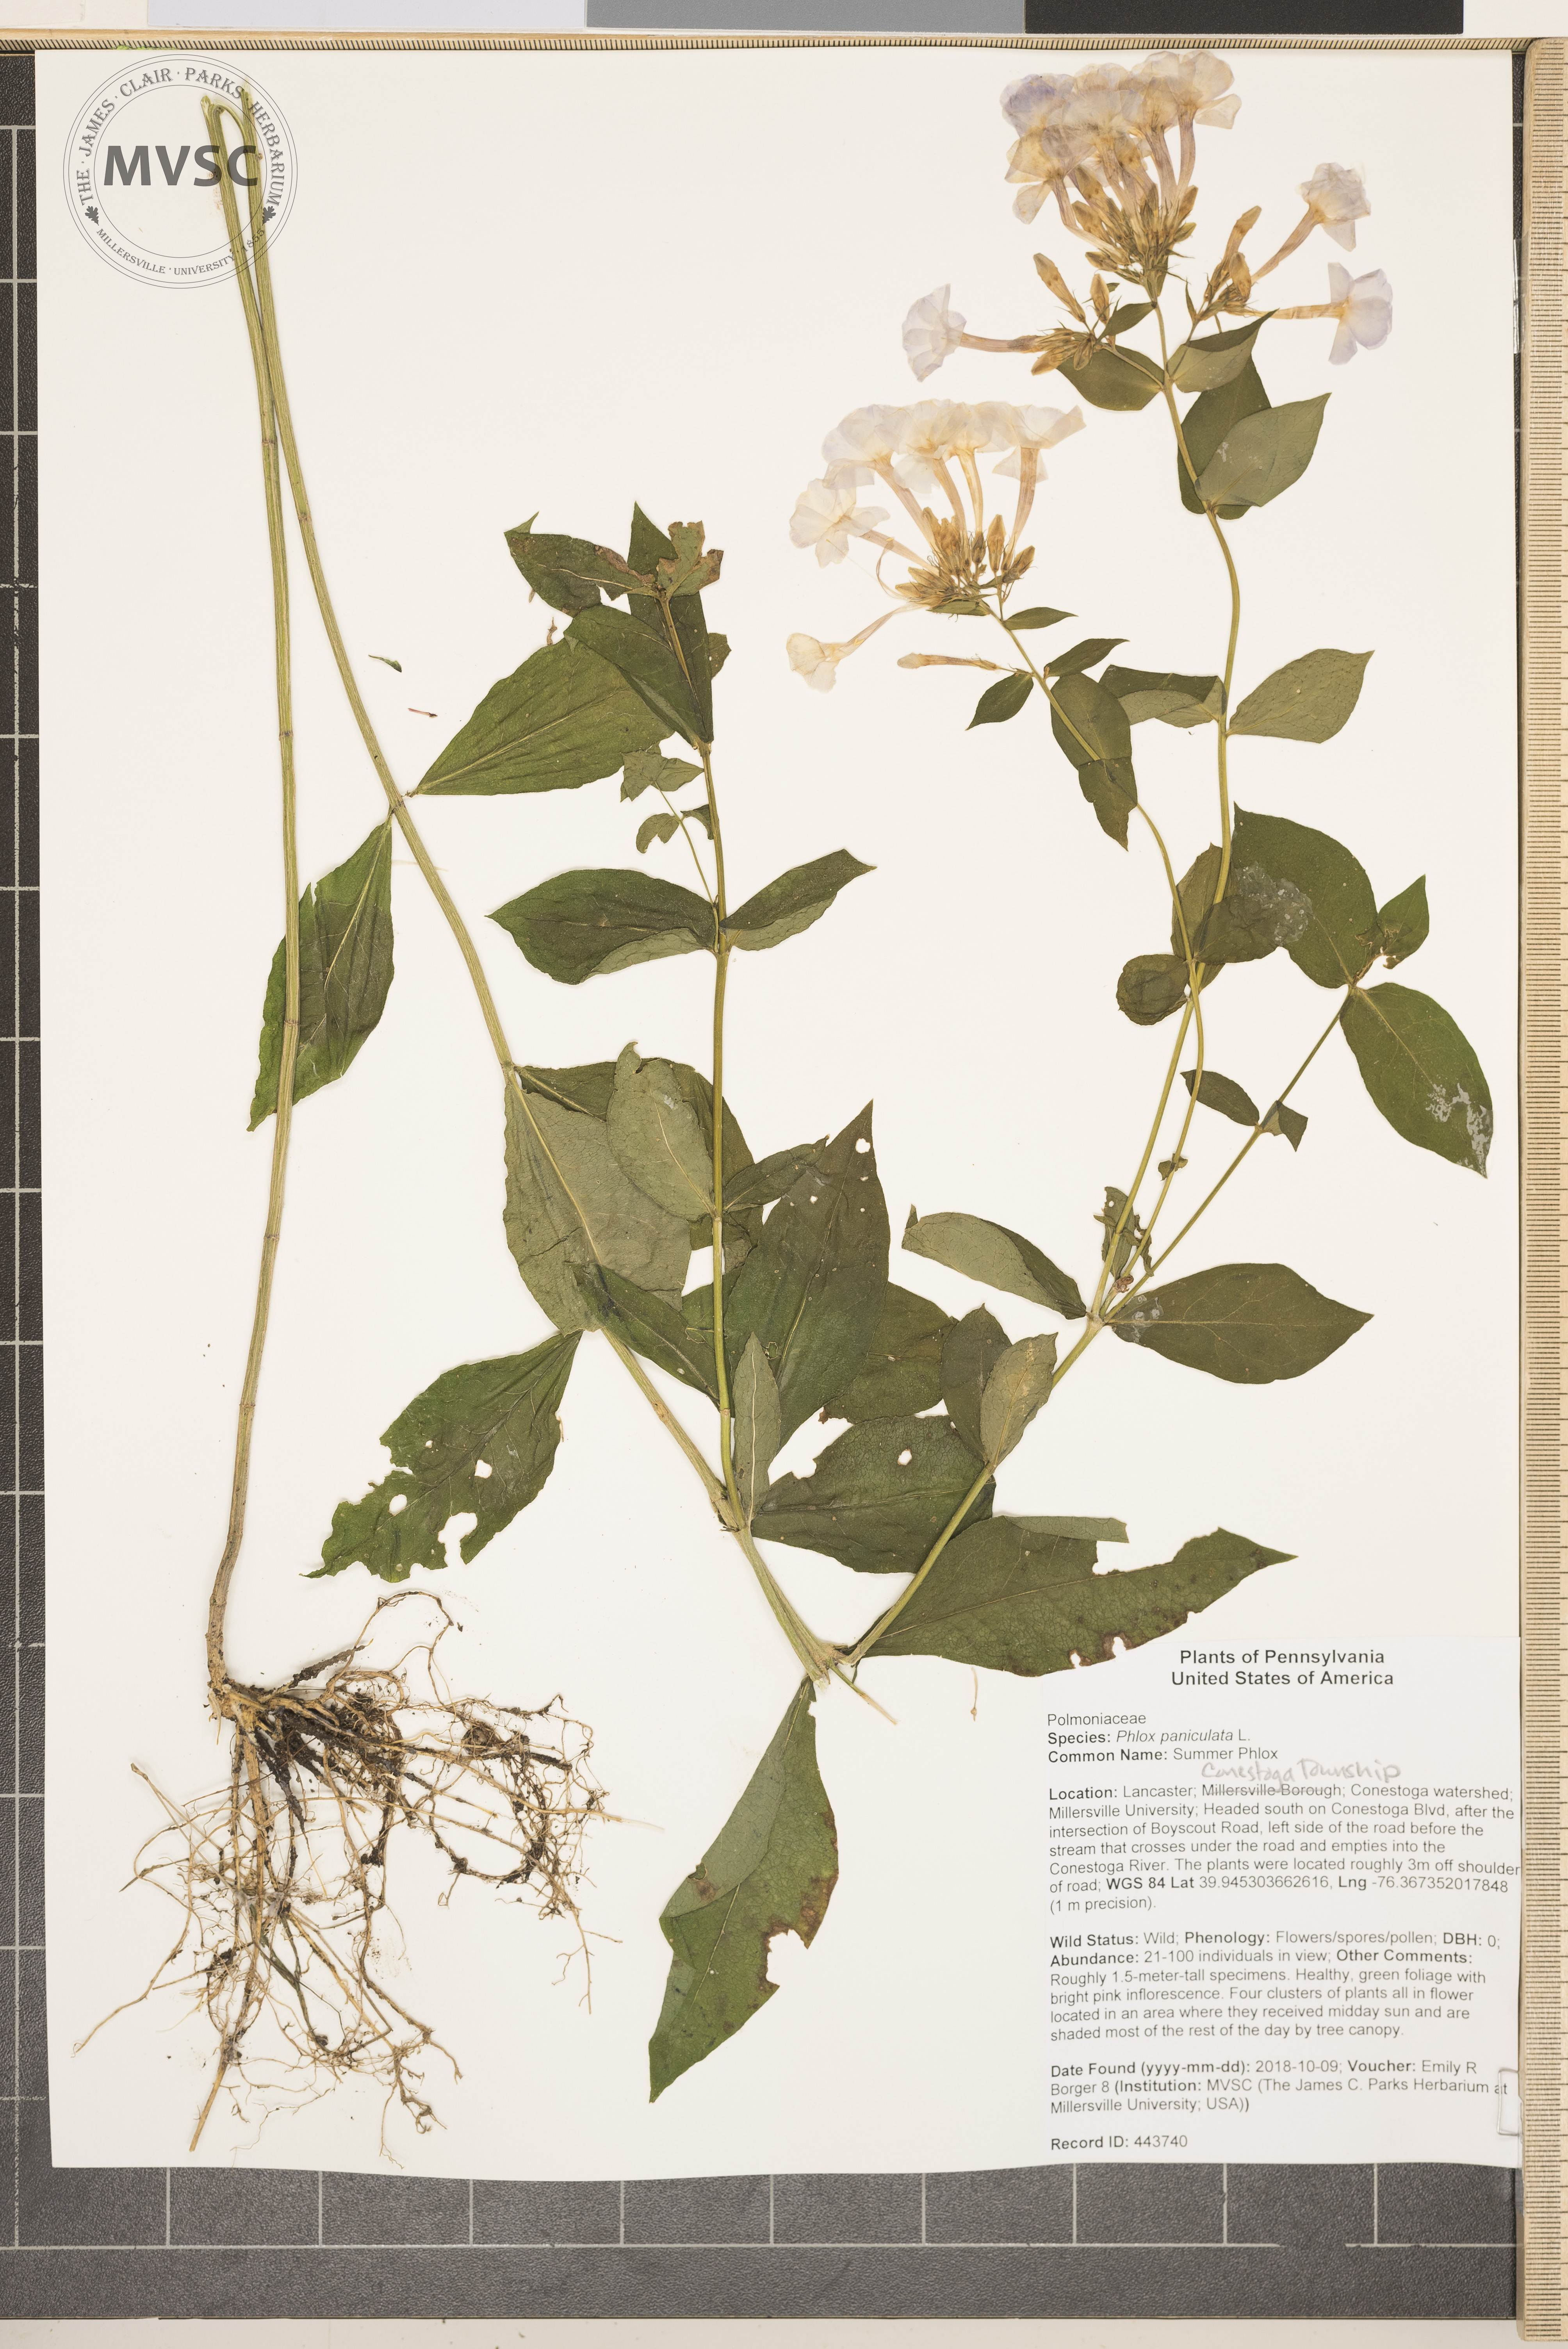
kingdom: Plantae
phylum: Tracheophyta
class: Magnoliopsida
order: Ericales
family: Polemoniaceae
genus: Phlox
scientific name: Phlox paniculata
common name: Summer Phlox
